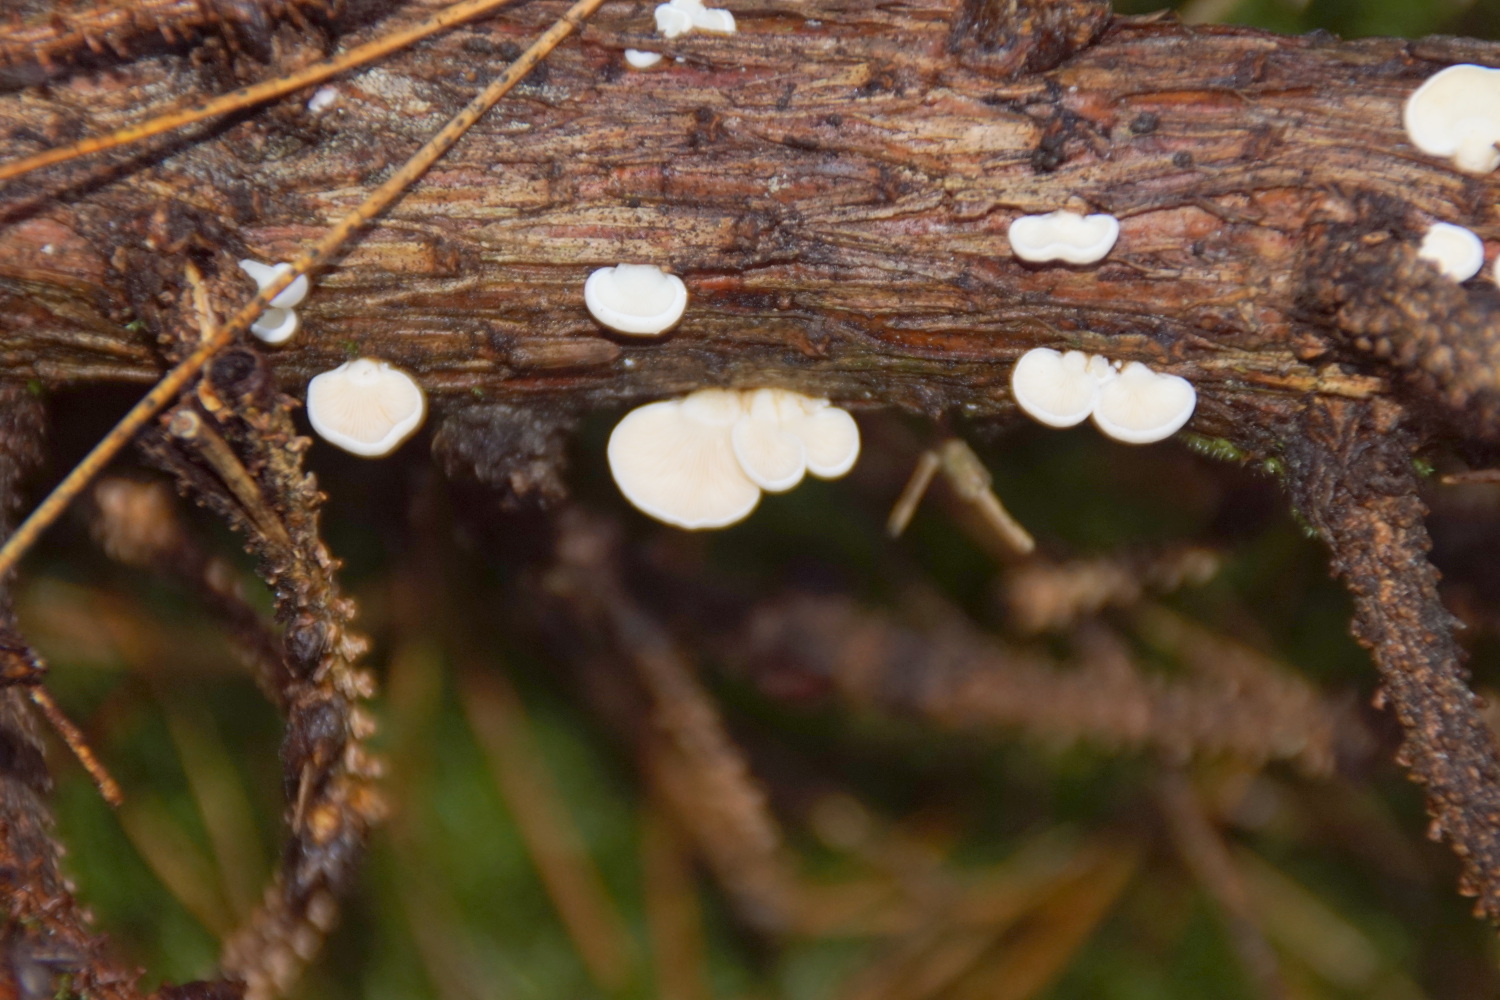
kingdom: Fungi
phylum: Basidiomycota
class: Agaricomycetes
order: Agaricales
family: Mycenaceae
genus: Panellus
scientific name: Panellus mitis
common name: mild epaulethat
